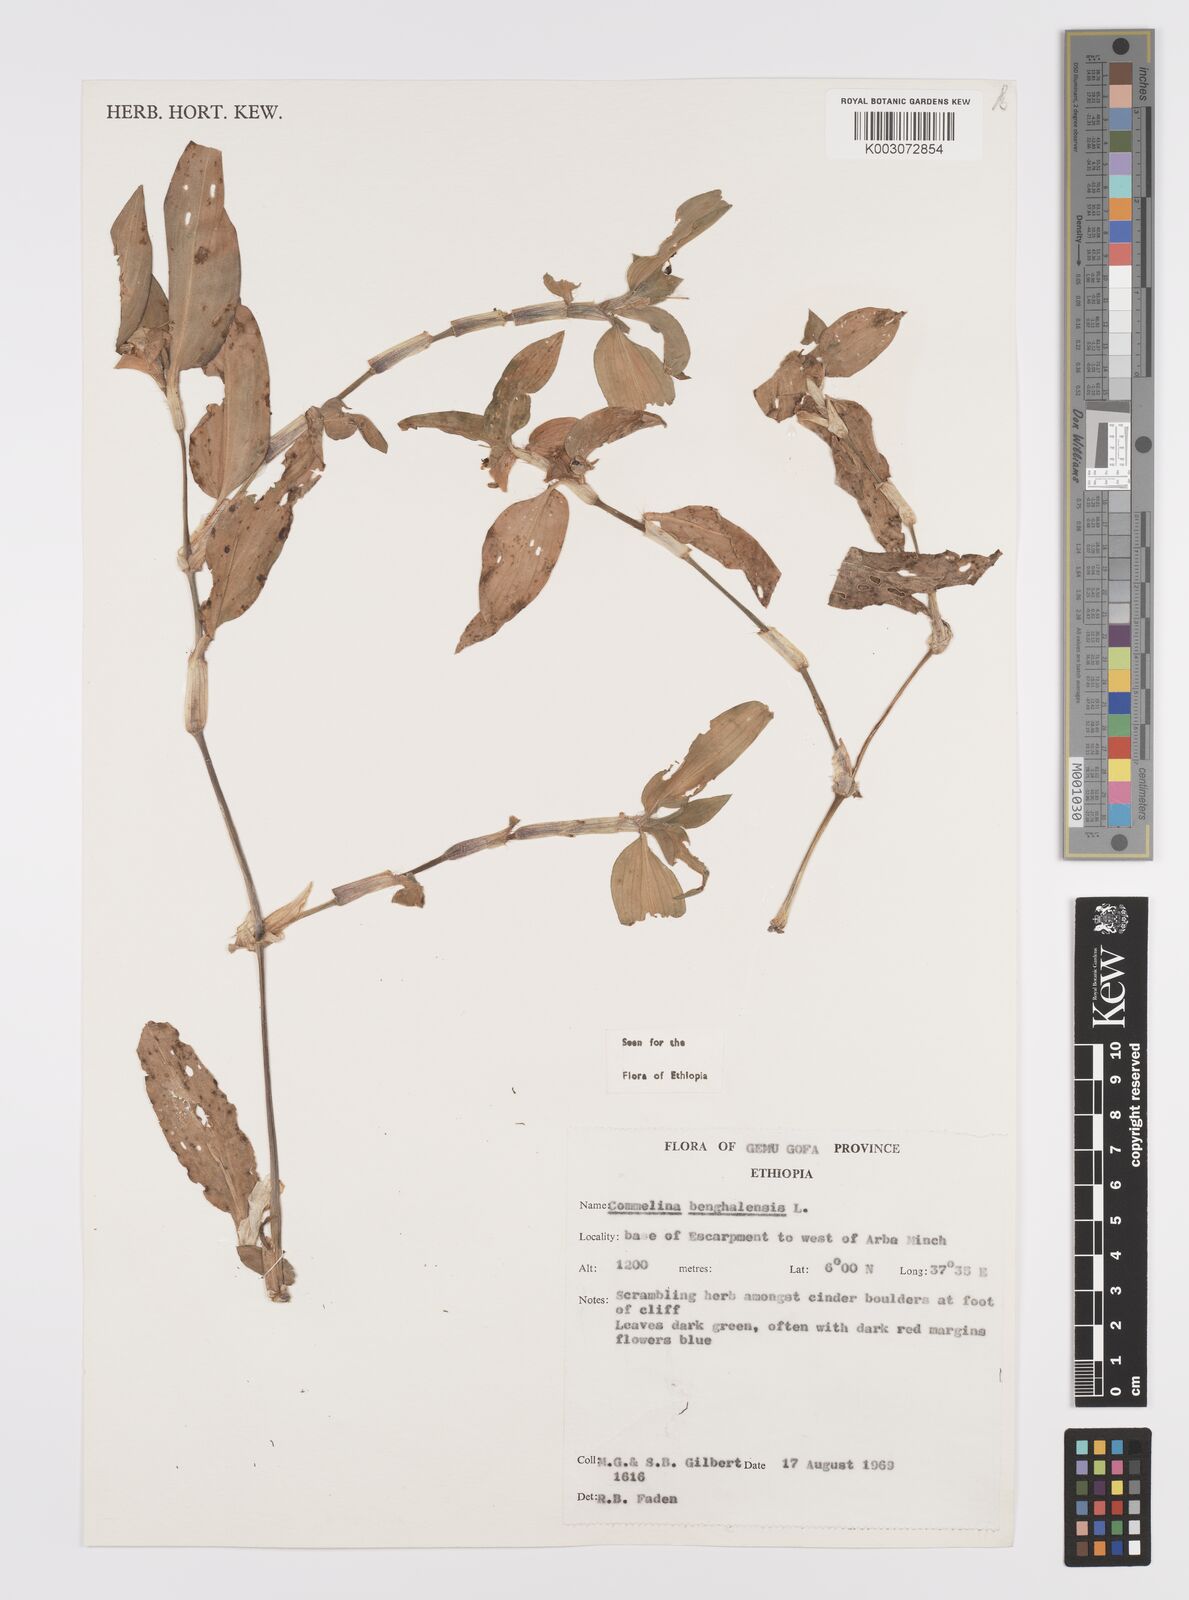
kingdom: Plantae
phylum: Tracheophyta
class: Liliopsida
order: Commelinales
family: Commelinaceae
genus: Commelina
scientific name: Commelina benghalensis
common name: Jio
